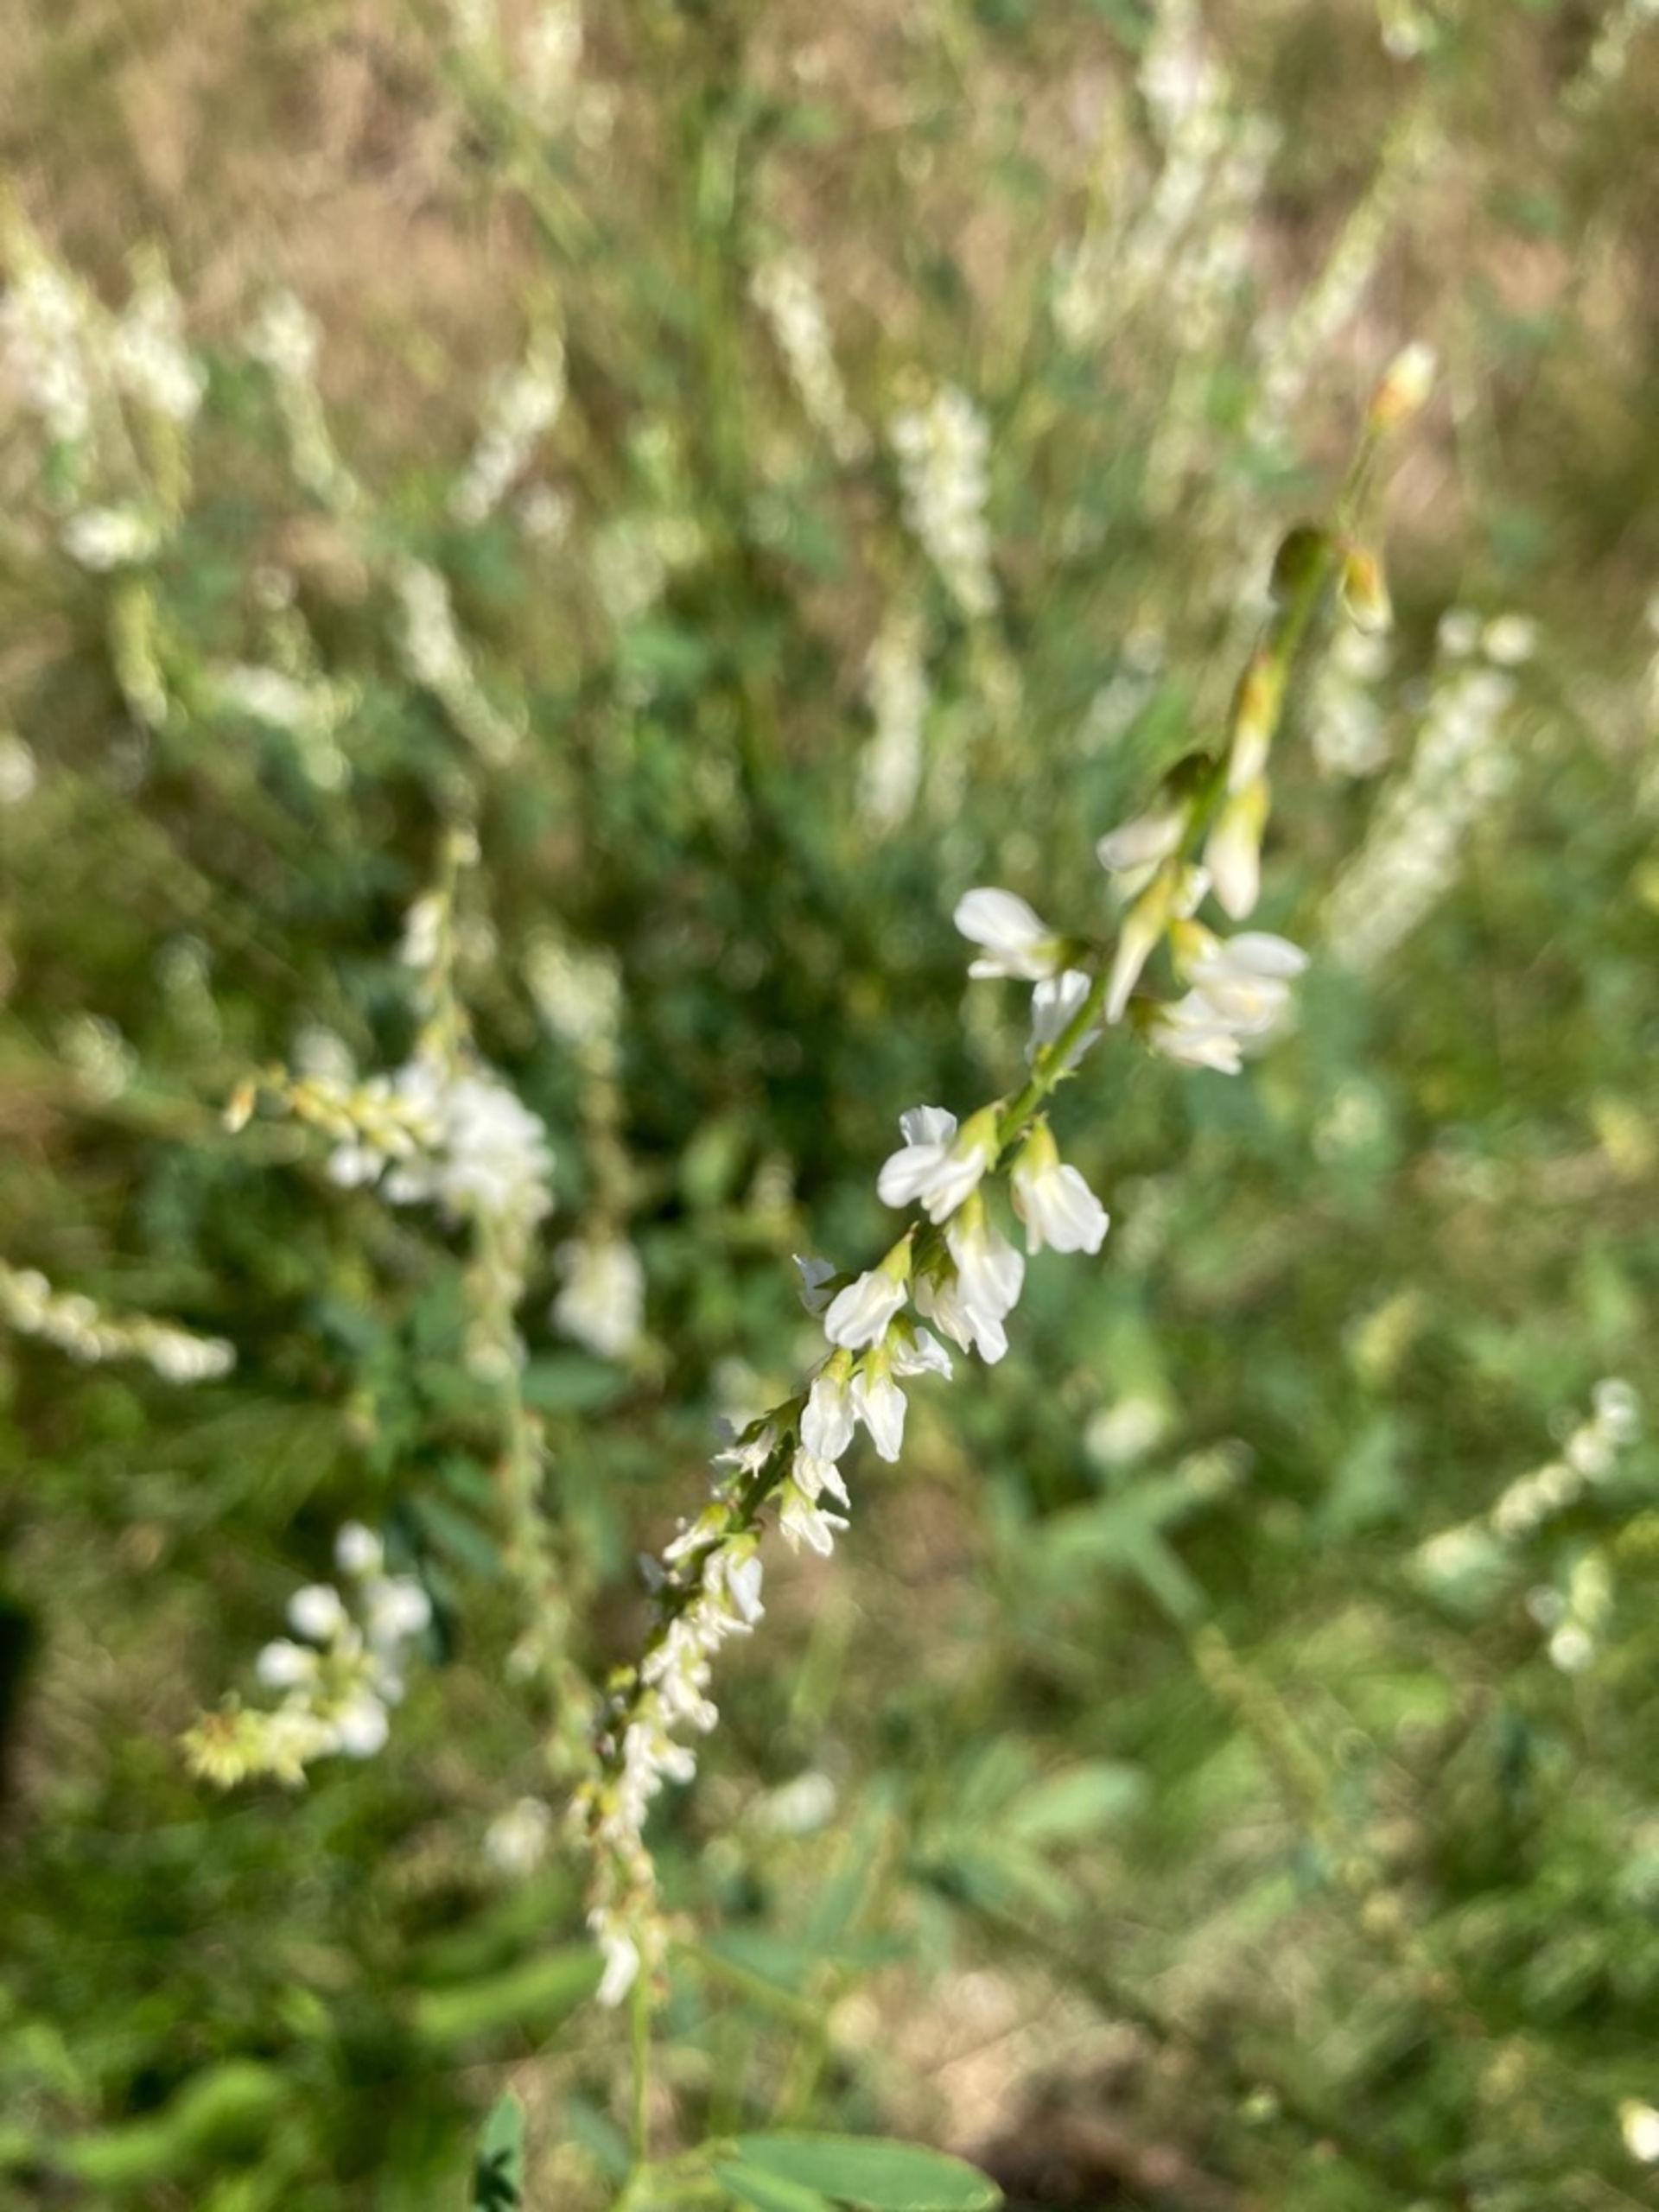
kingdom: Plantae
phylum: Tracheophyta
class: Magnoliopsida
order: Fabales
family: Fabaceae
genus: Melilotus
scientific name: Melilotus albus
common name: Hvid stenkløver
